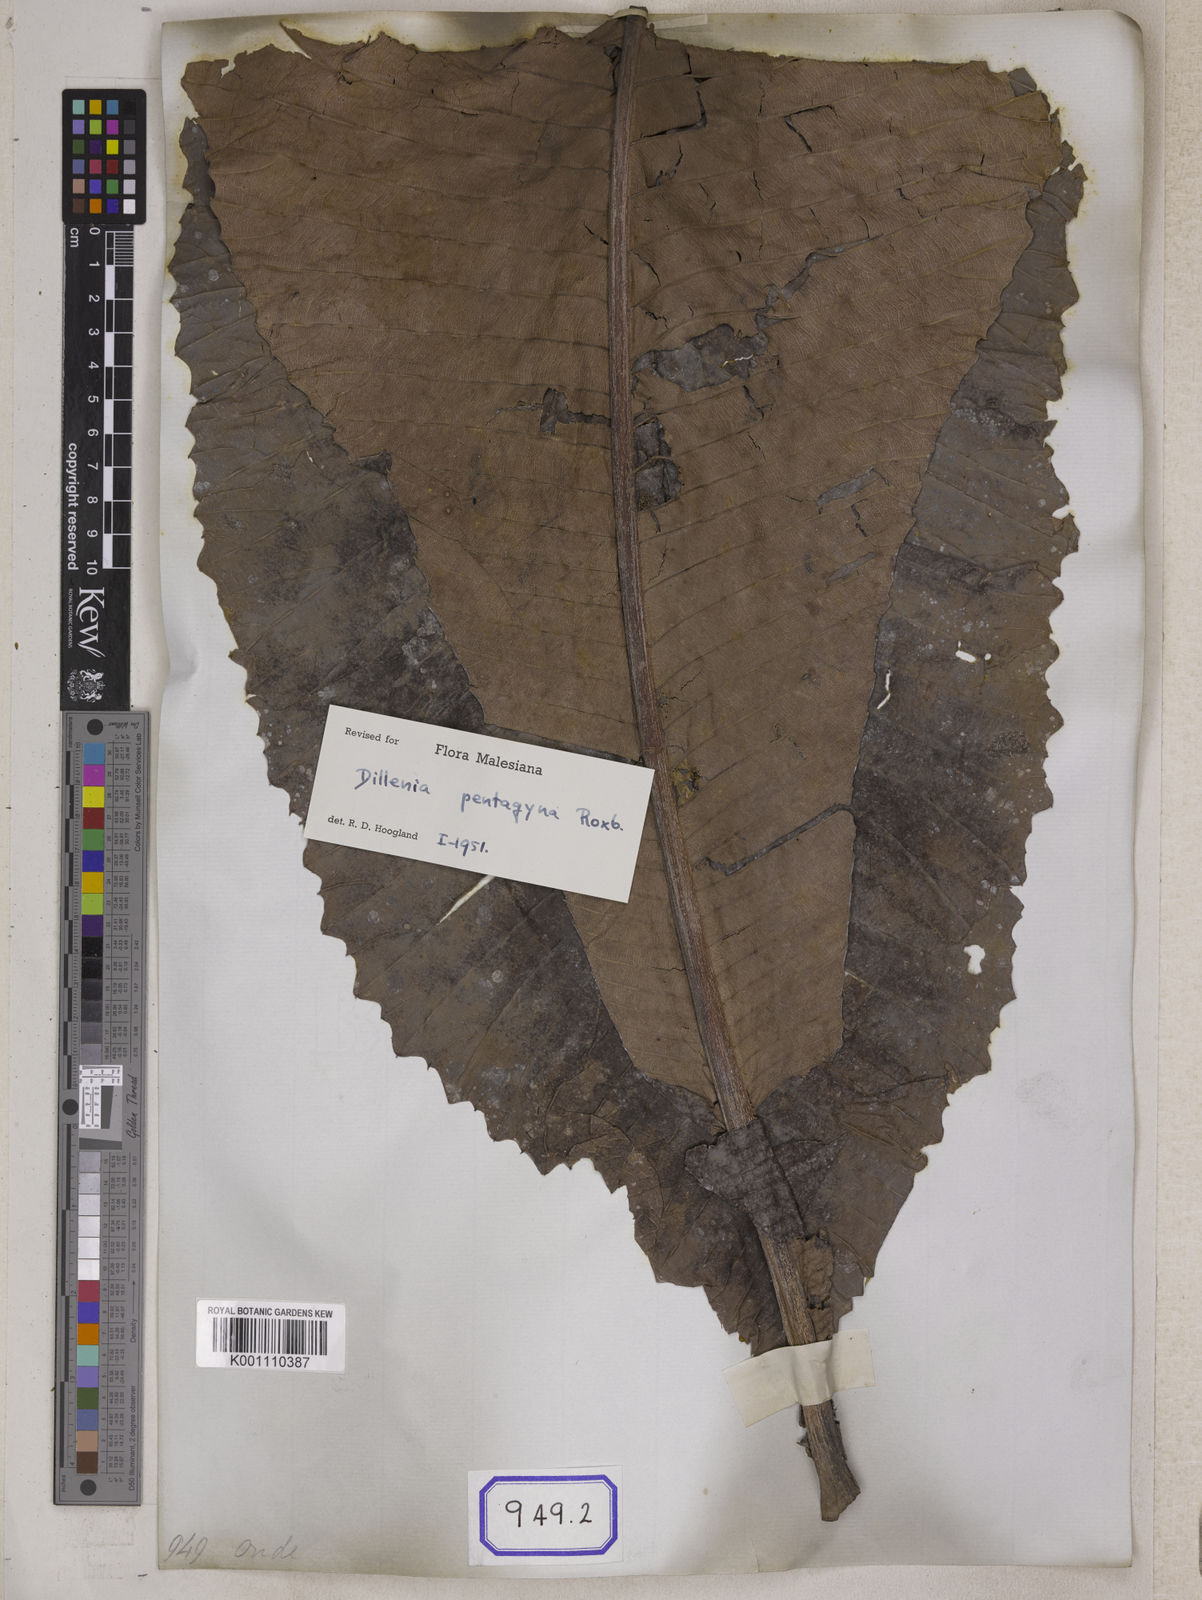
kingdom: Plantae
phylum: Tracheophyta
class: Magnoliopsida
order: Dilleniales
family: Dilleniaceae
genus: Dillenia
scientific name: Dillenia pentagyna
